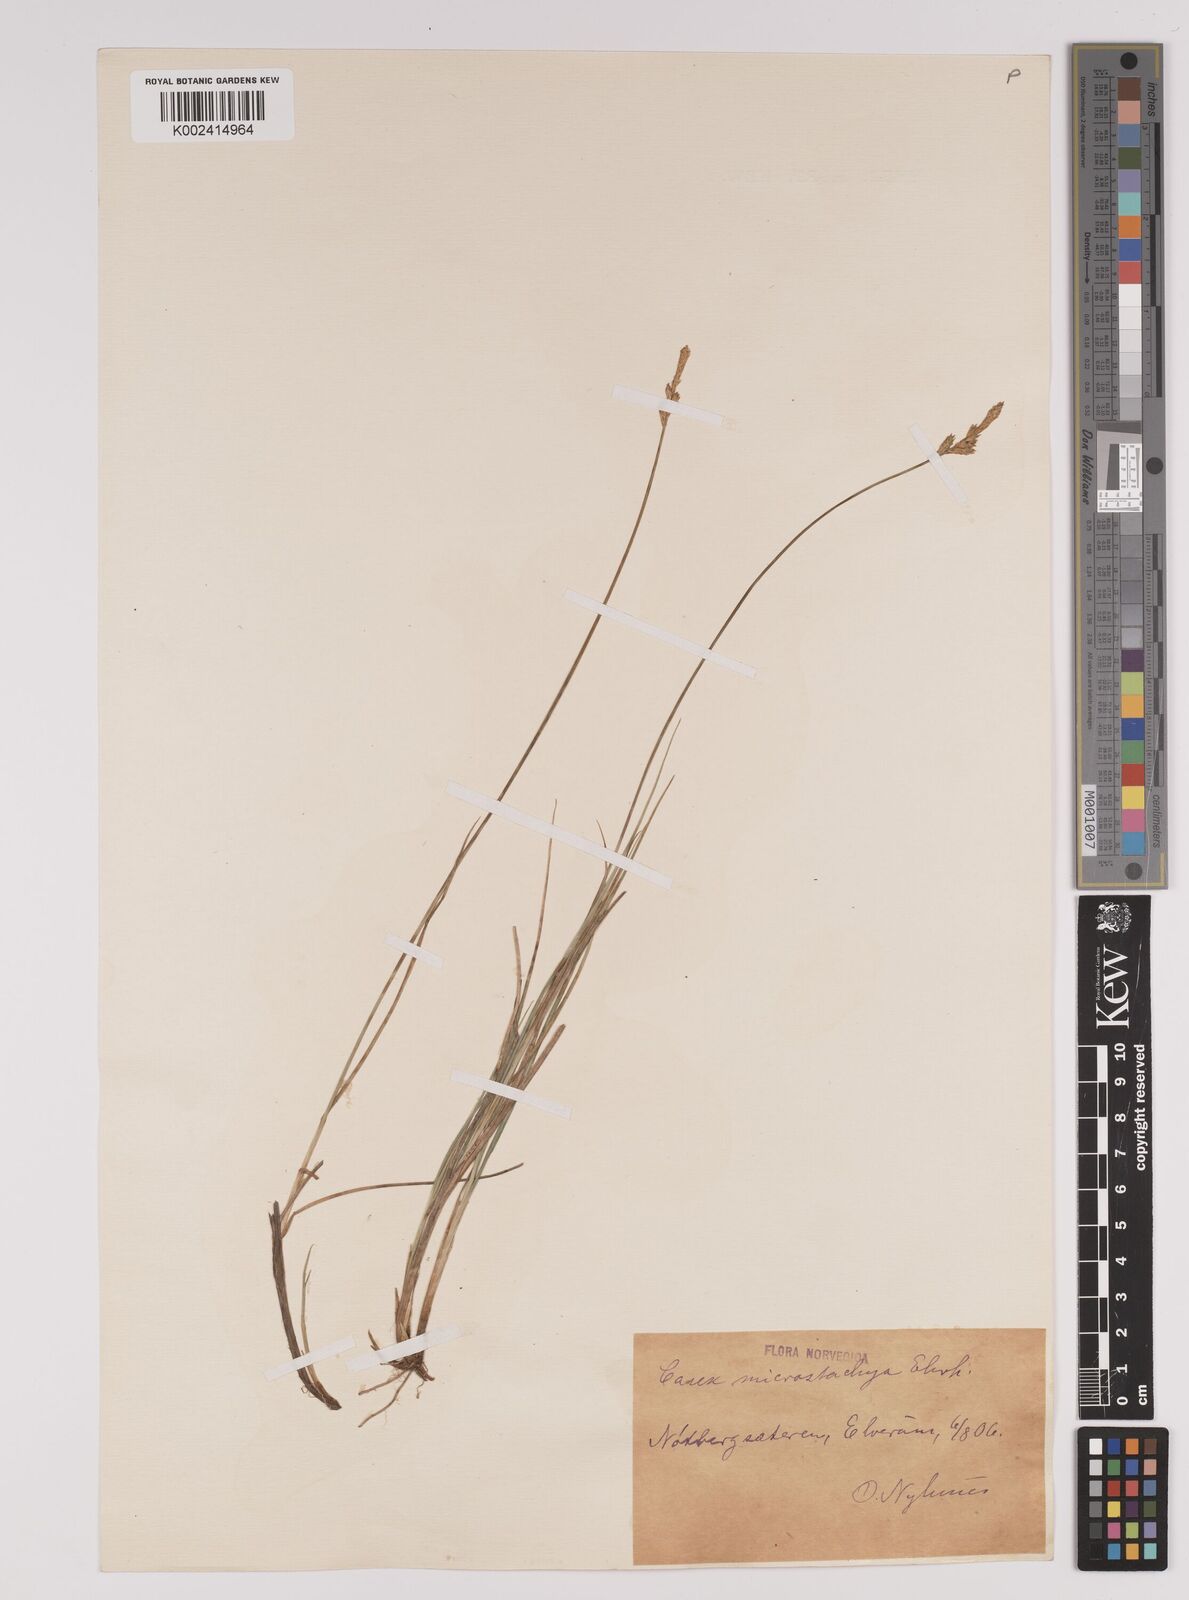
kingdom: Plantae
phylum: Tracheophyta
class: Liliopsida
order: Poales
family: Cyperaceae
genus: Carex
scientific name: Carex dioica
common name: Dioecious sedge
